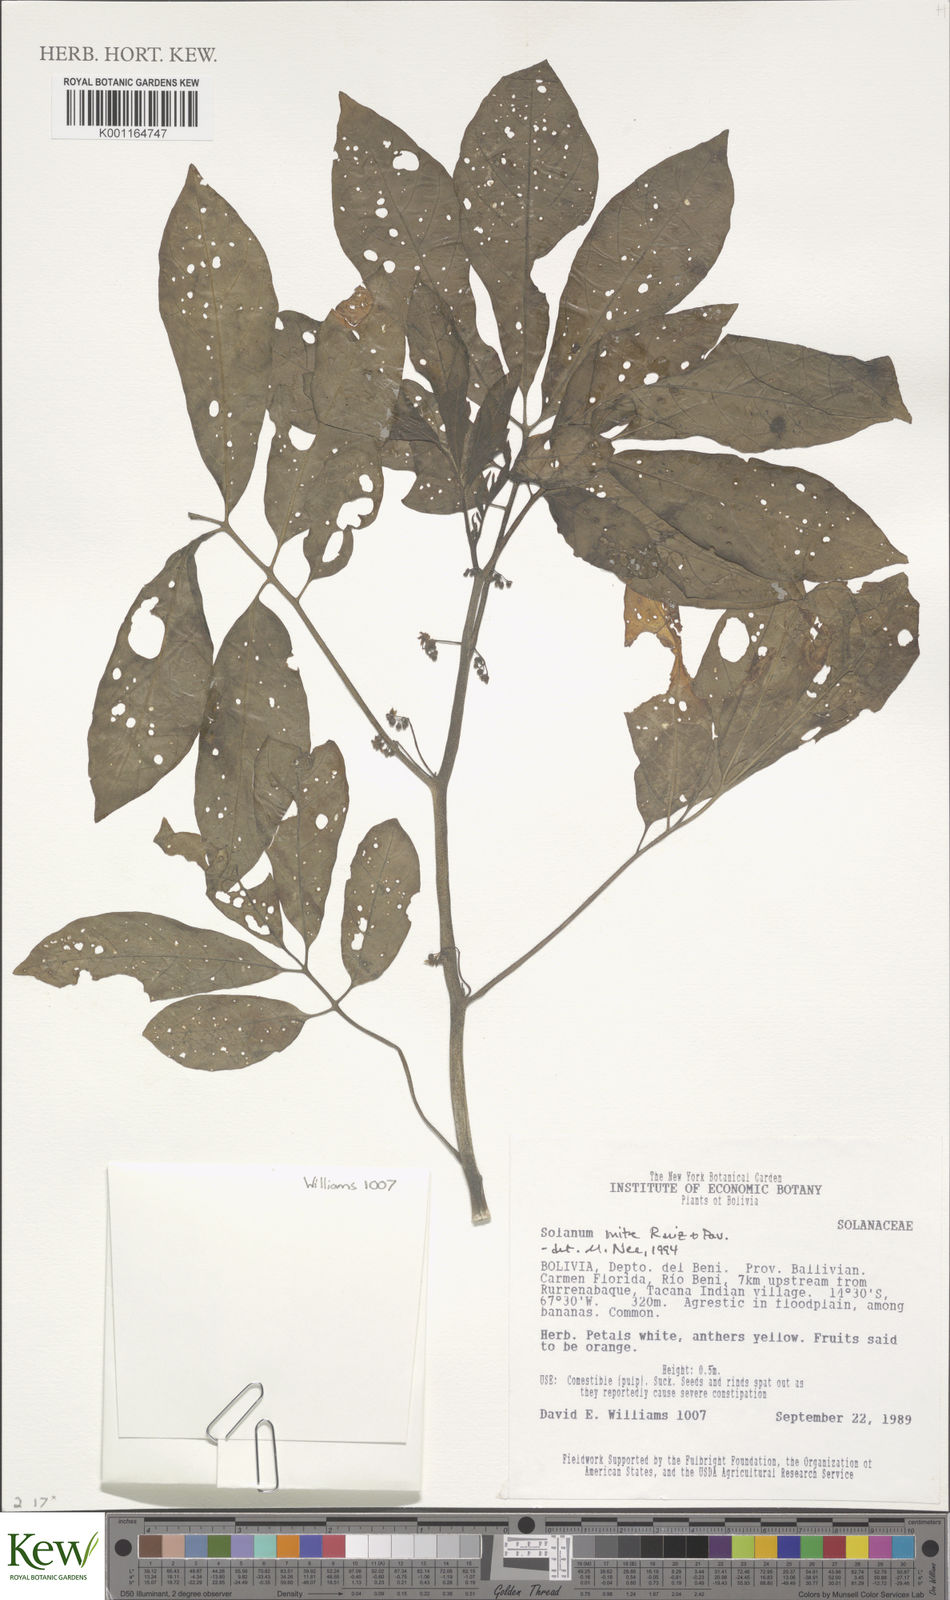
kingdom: Plantae
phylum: Tracheophyta
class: Magnoliopsida
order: Solanales
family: Solanaceae
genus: Solanum
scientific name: Solanum mite
